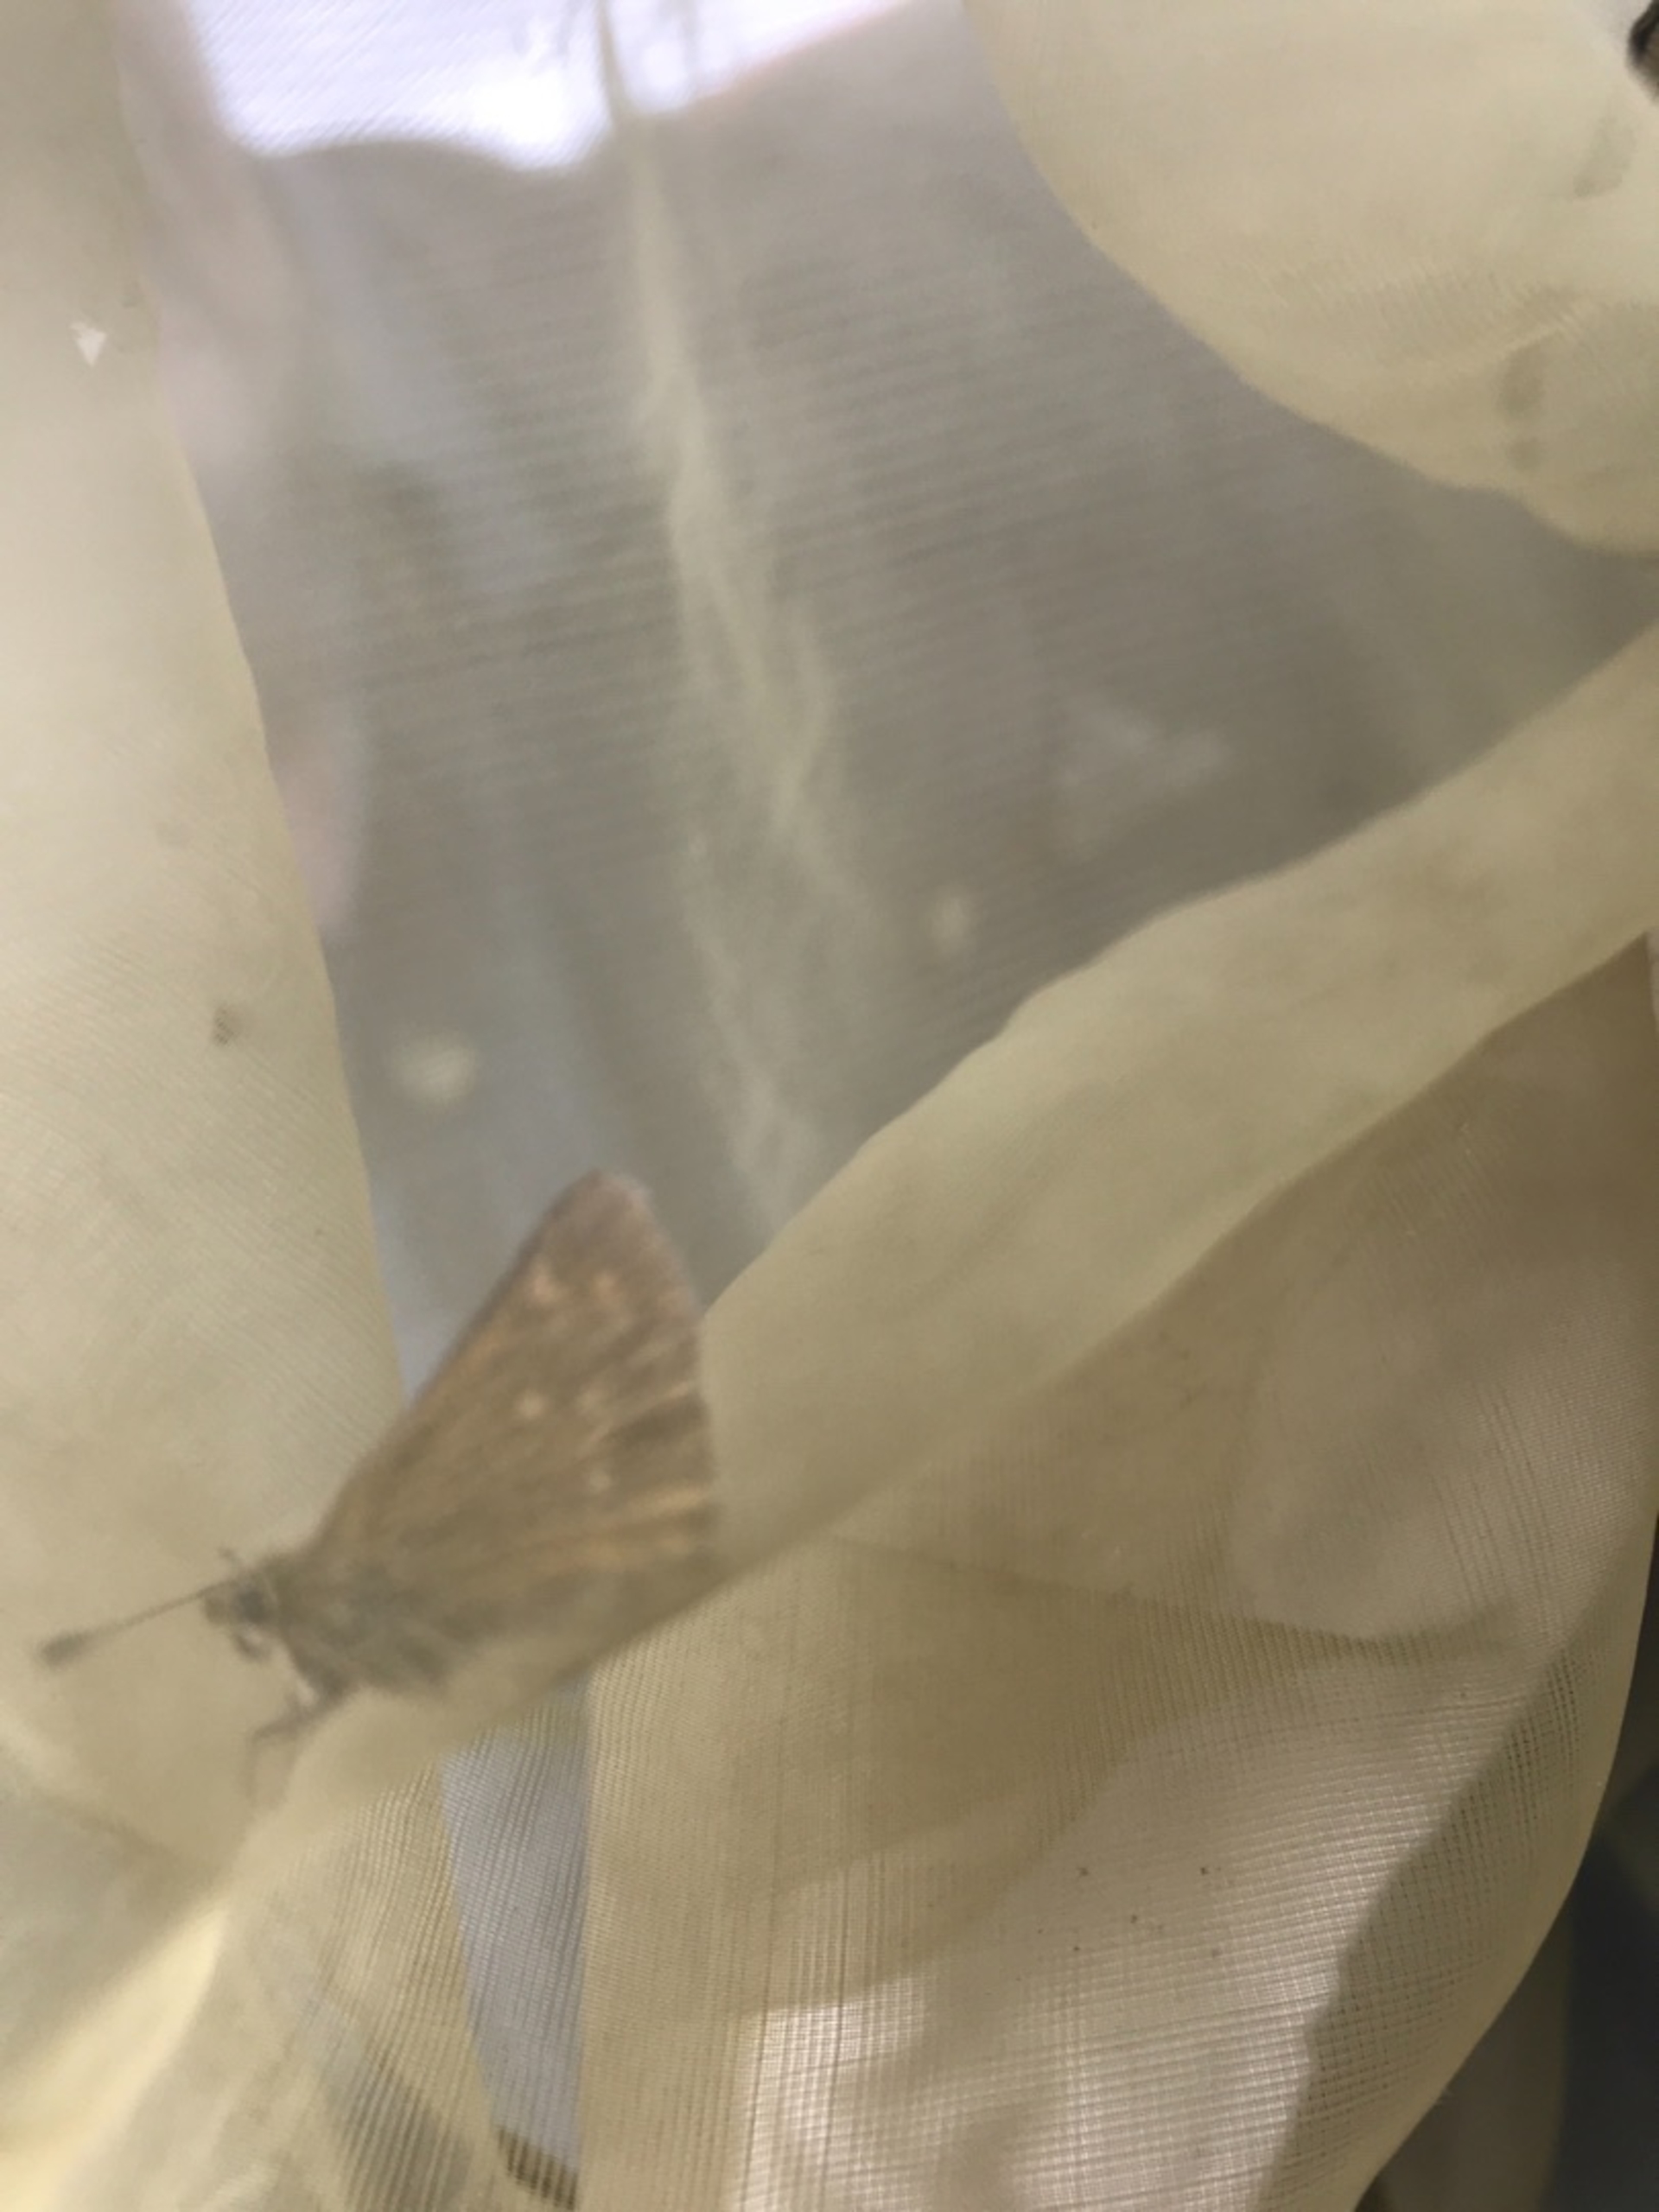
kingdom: Animalia
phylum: Arthropoda
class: Insecta
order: Lepidoptera
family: Hesperiidae
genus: Ochlodes
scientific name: Ochlodes venata
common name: Stor bredpande
